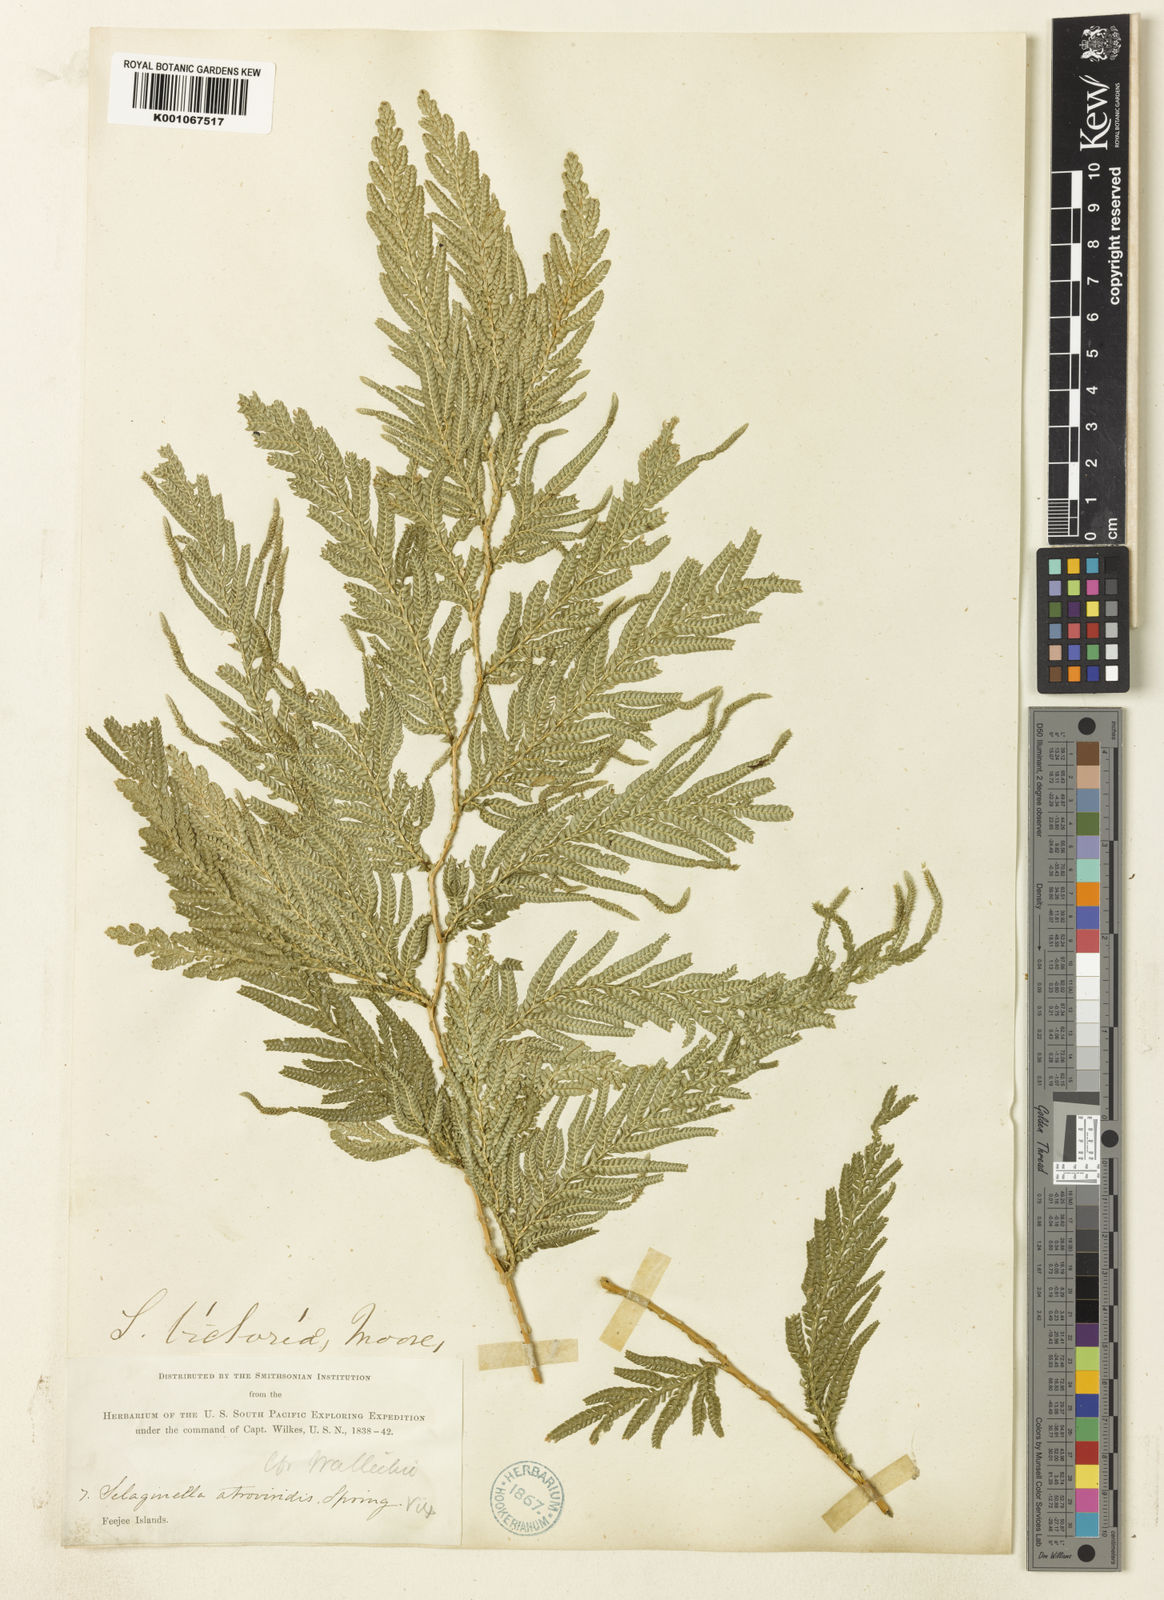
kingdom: Plantae
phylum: Tracheophyta
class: Lycopodiopsida
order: Selaginellales
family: Selaginellaceae
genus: Selaginella
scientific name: Selaginella
